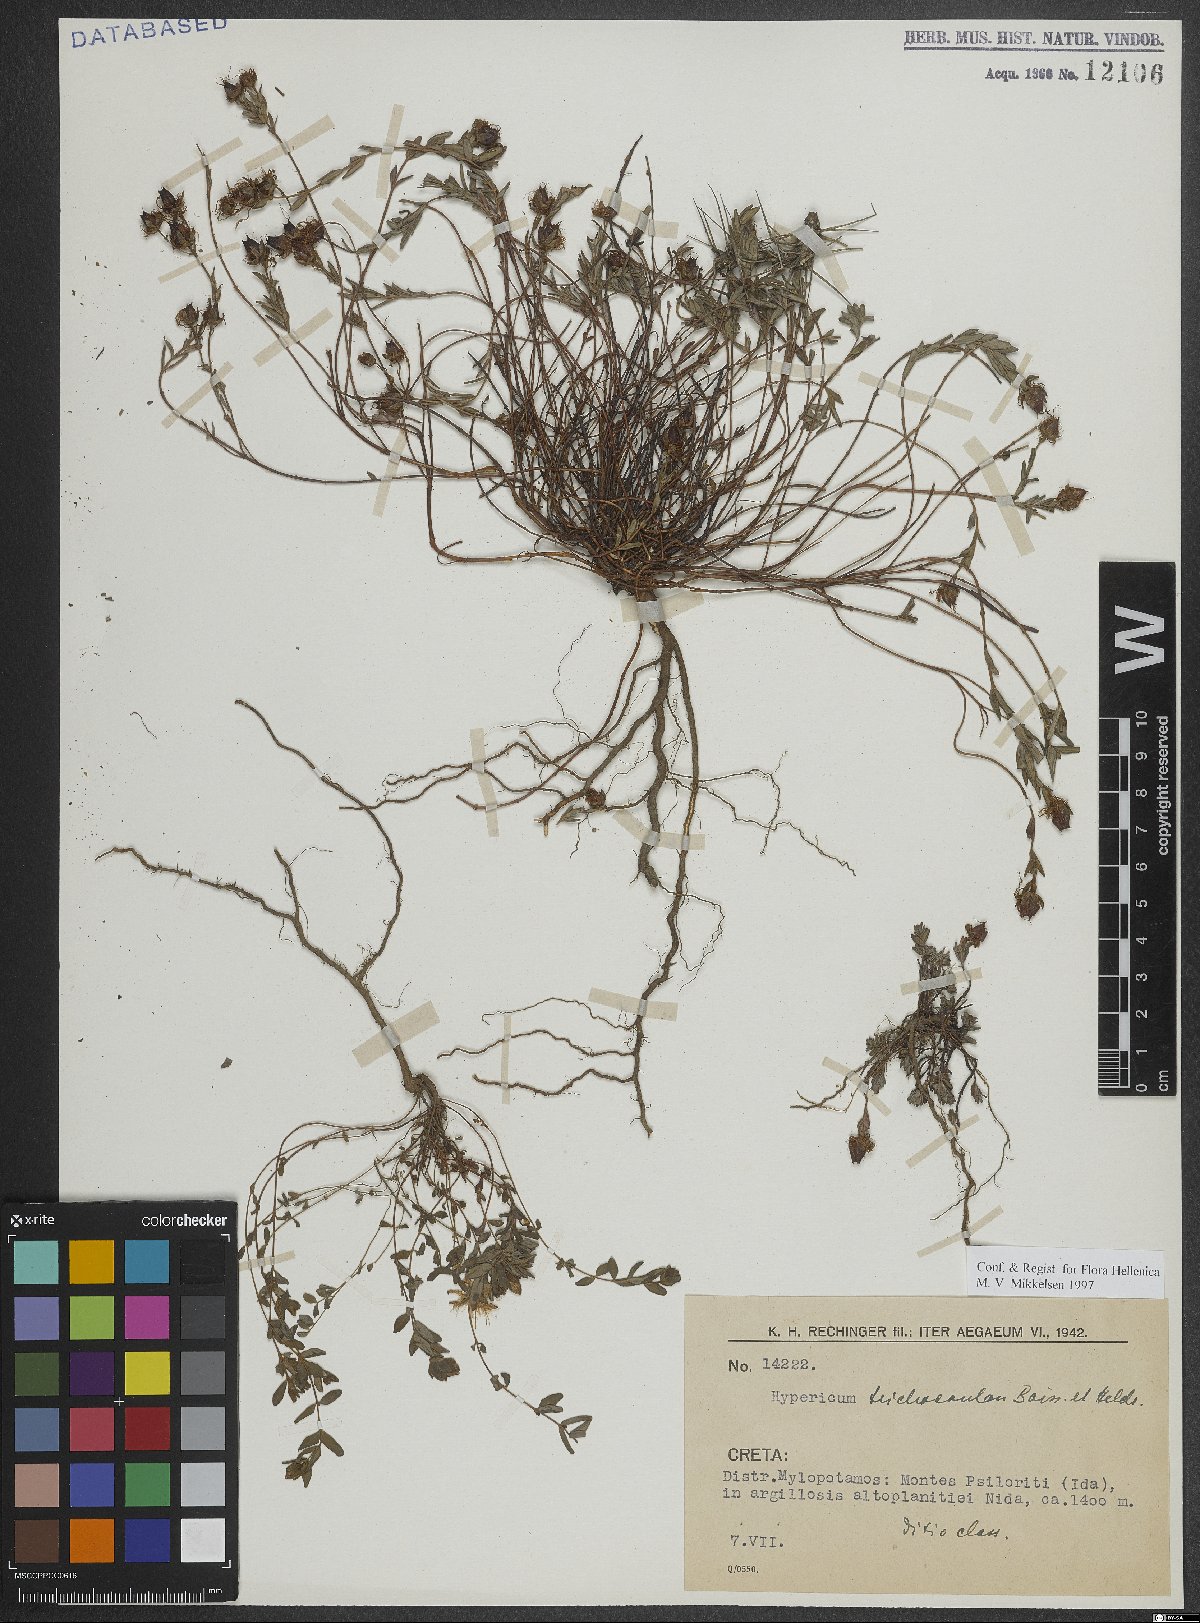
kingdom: Plantae
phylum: Tracheophyta
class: Magnoliopsida
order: Malpighiales
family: Hypericaceae
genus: Hypericum
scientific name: Hypericum trichocaulon
